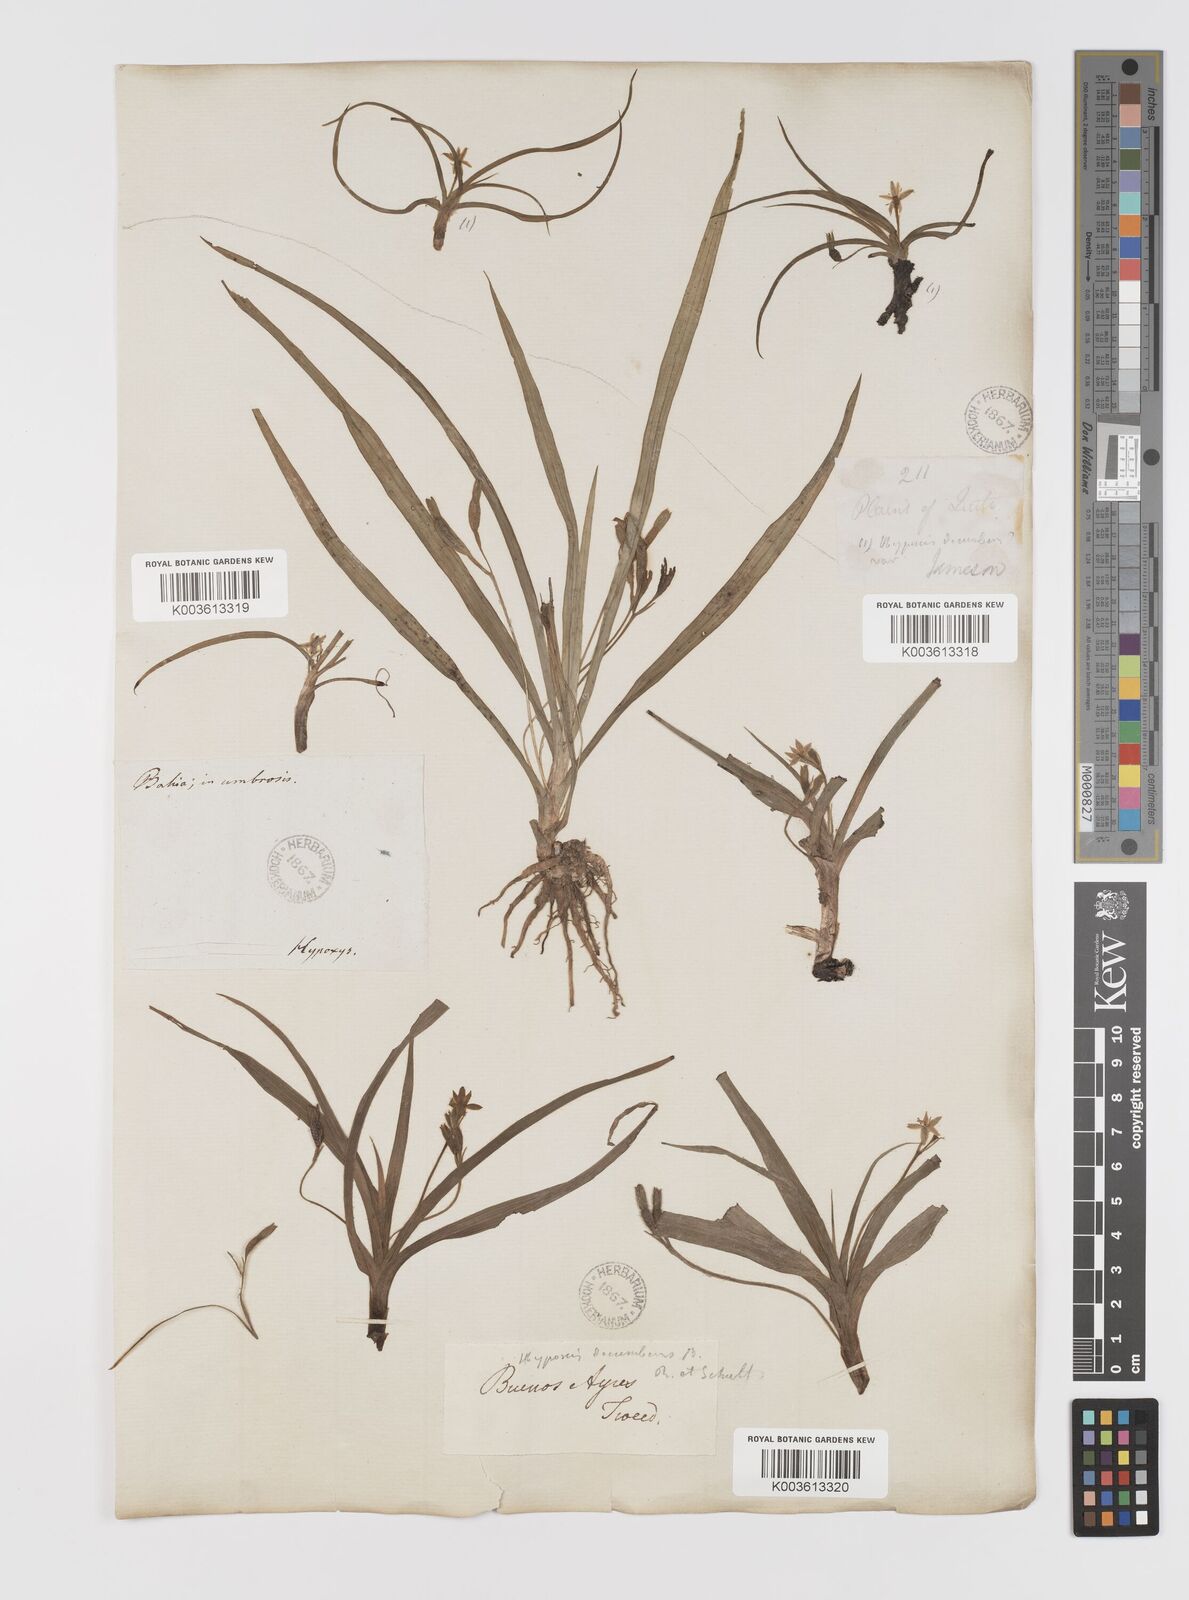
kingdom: Plantae
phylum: Tracheophyta
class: Liliopsida
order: Asparagales
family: Hypoxidaceae
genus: Hypoxis
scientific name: Hypoxis decumbens
